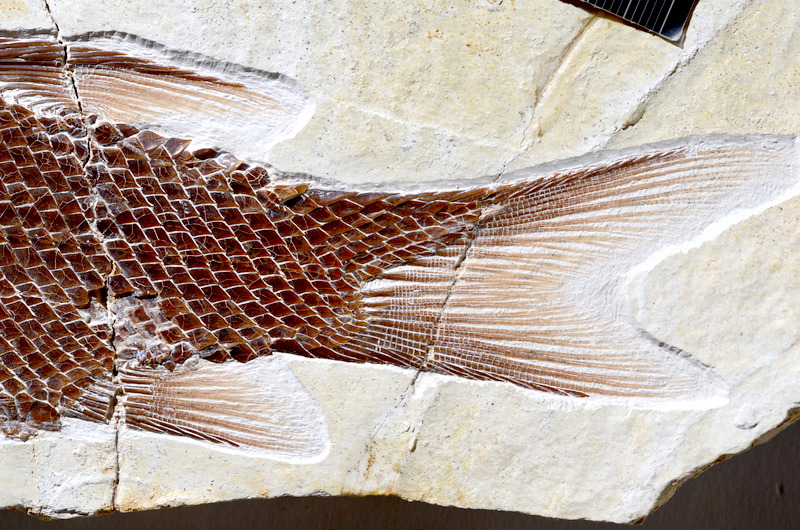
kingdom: Animalia
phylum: Chordata
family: Callipurbeckiidae
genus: Macrosemimimus
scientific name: Macrosemimimus fegerti
